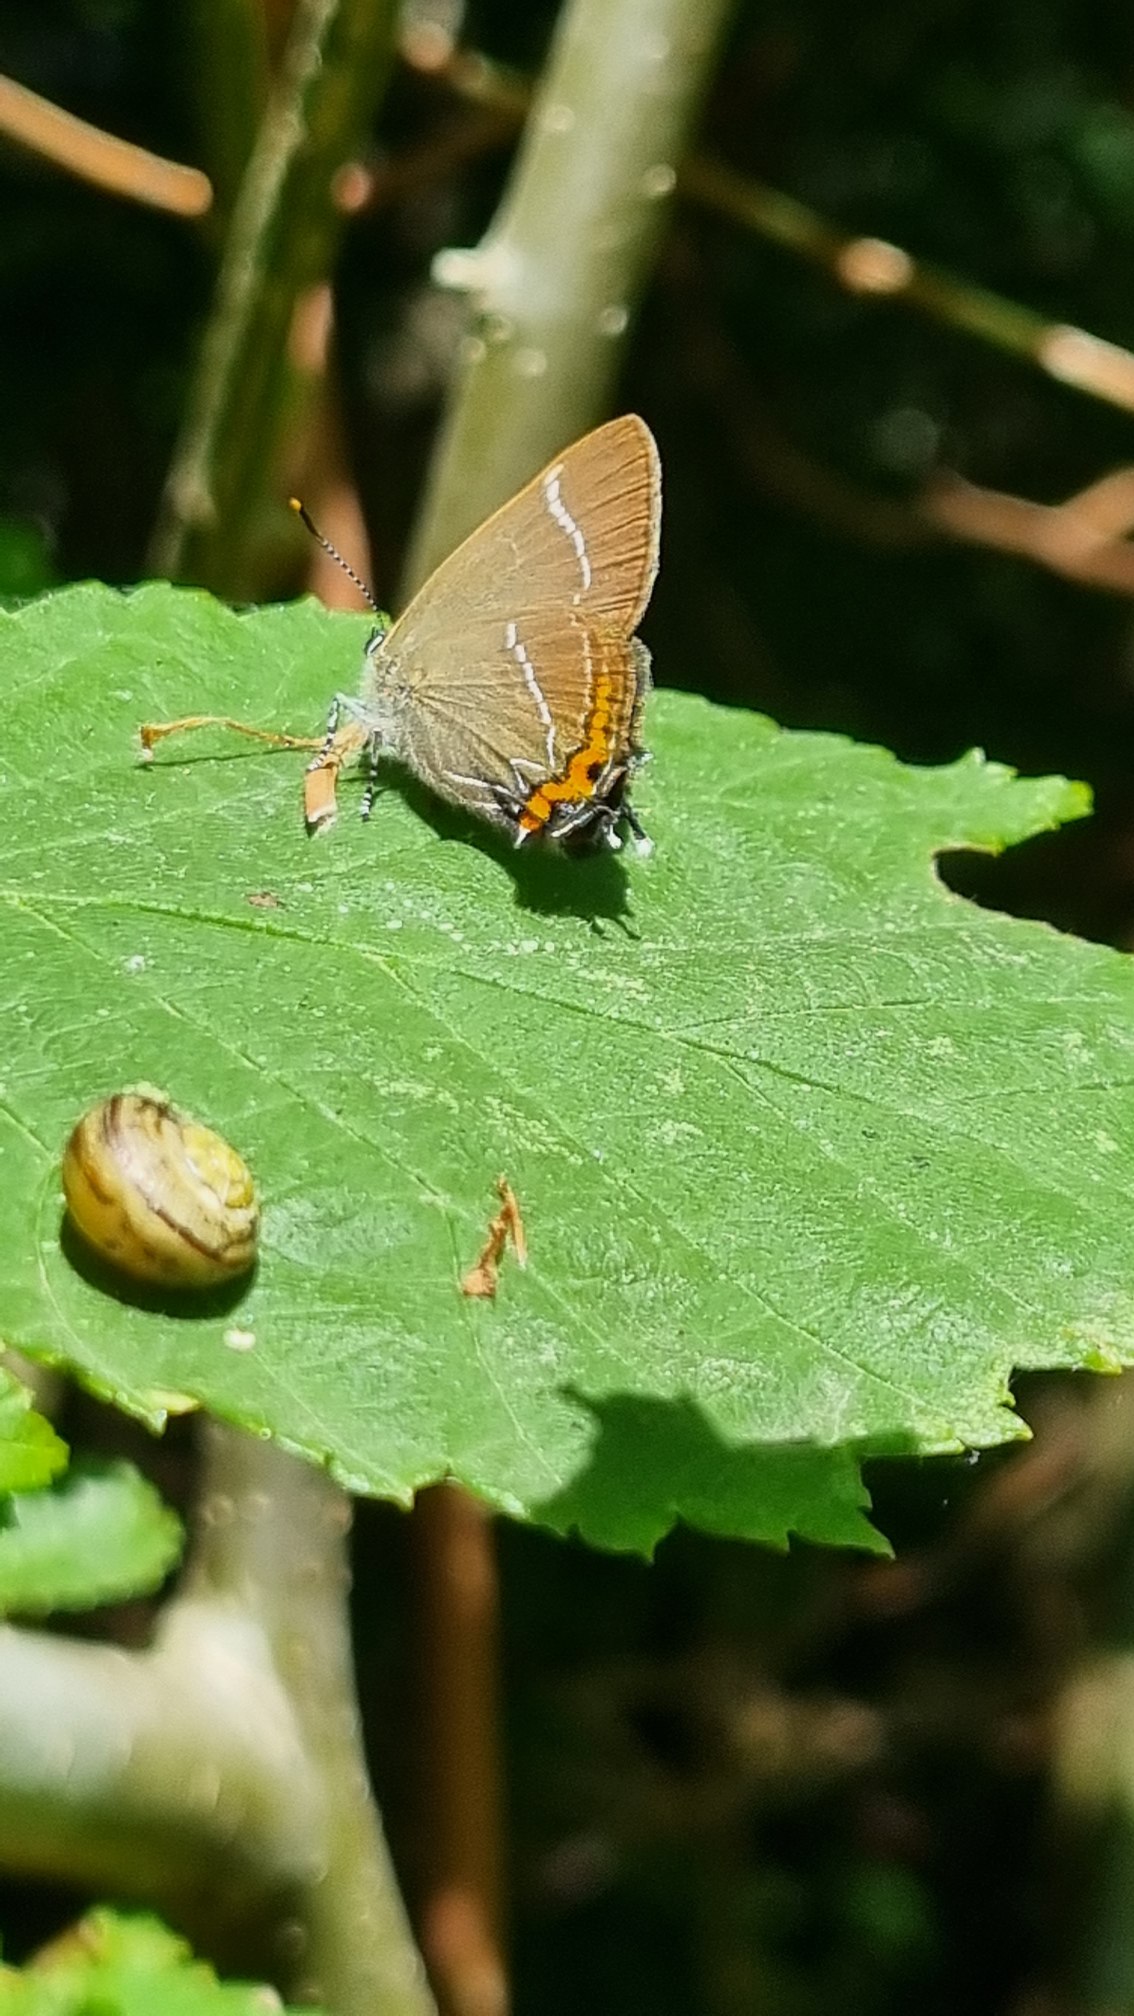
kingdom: Animalia
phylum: Arthropoda
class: Insecta
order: Lepidoptera
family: Lycaenidae
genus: Satyrium
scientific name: Satyrium w-album
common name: Det hvide W
